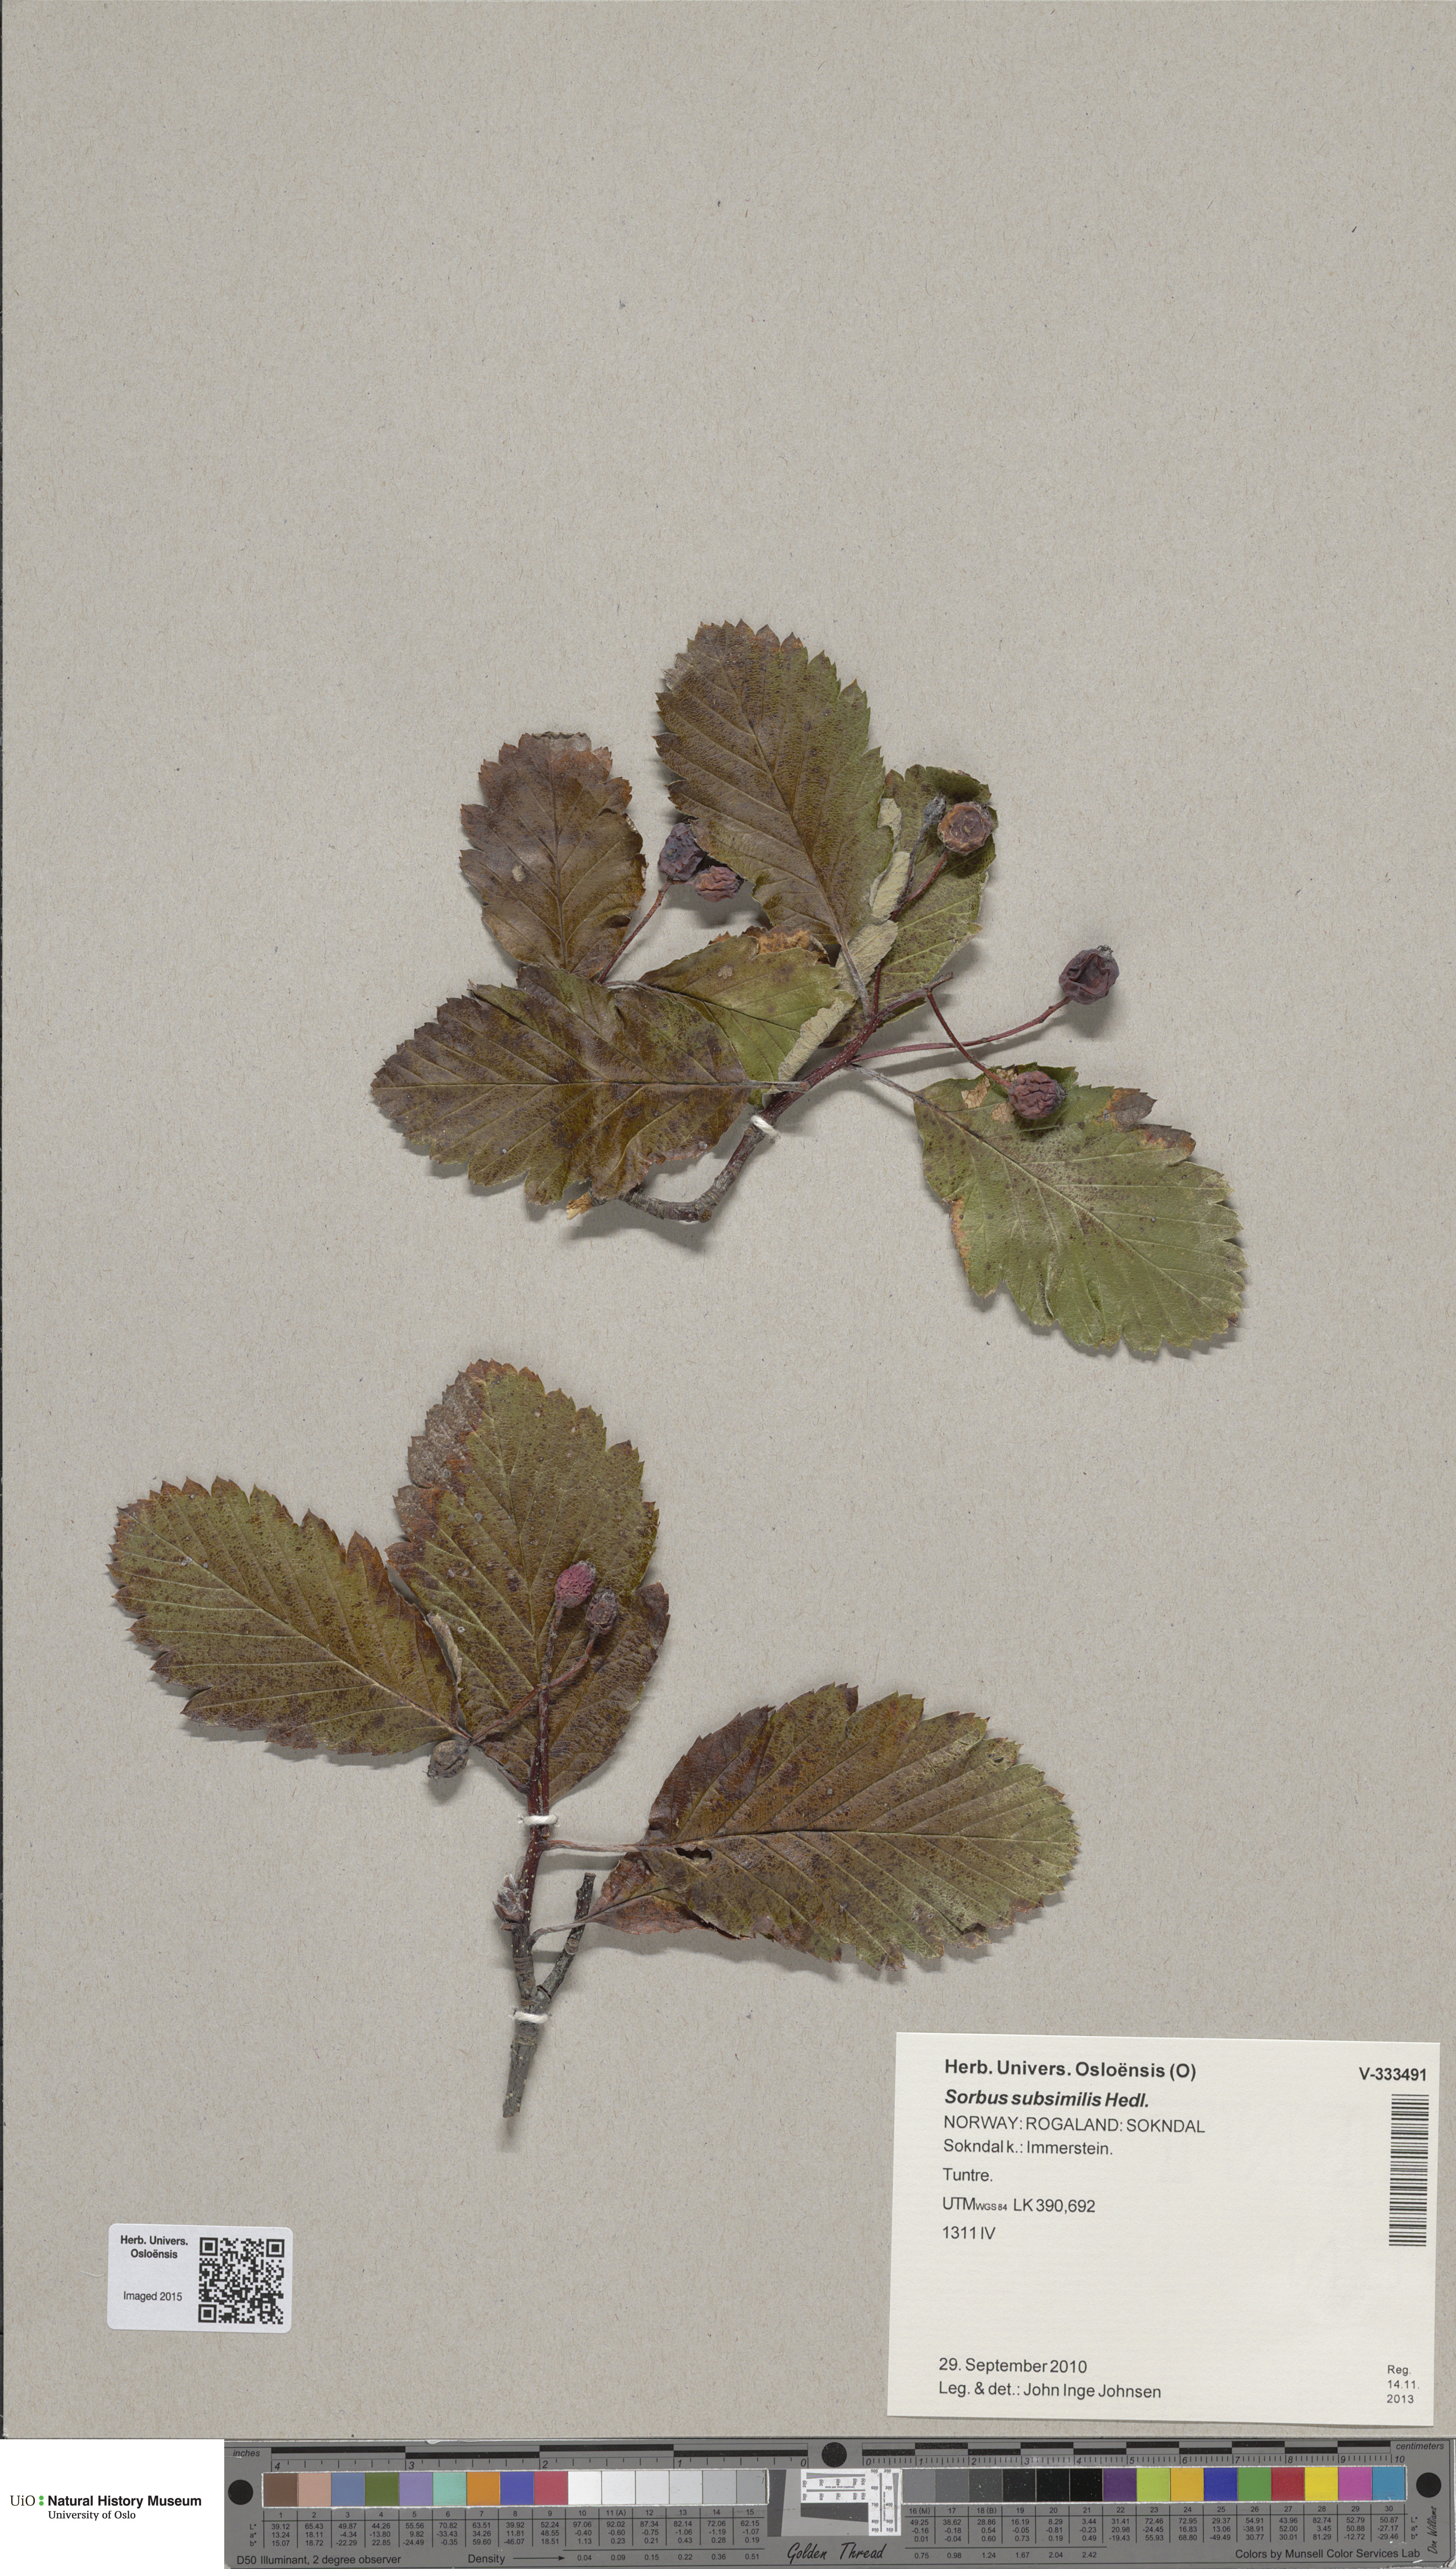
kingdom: Plantae
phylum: Tracheophyta
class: Magnoliopsida
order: Rosales
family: Rosaceae
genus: Hedlundia
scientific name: Hedlundia subsimilis
